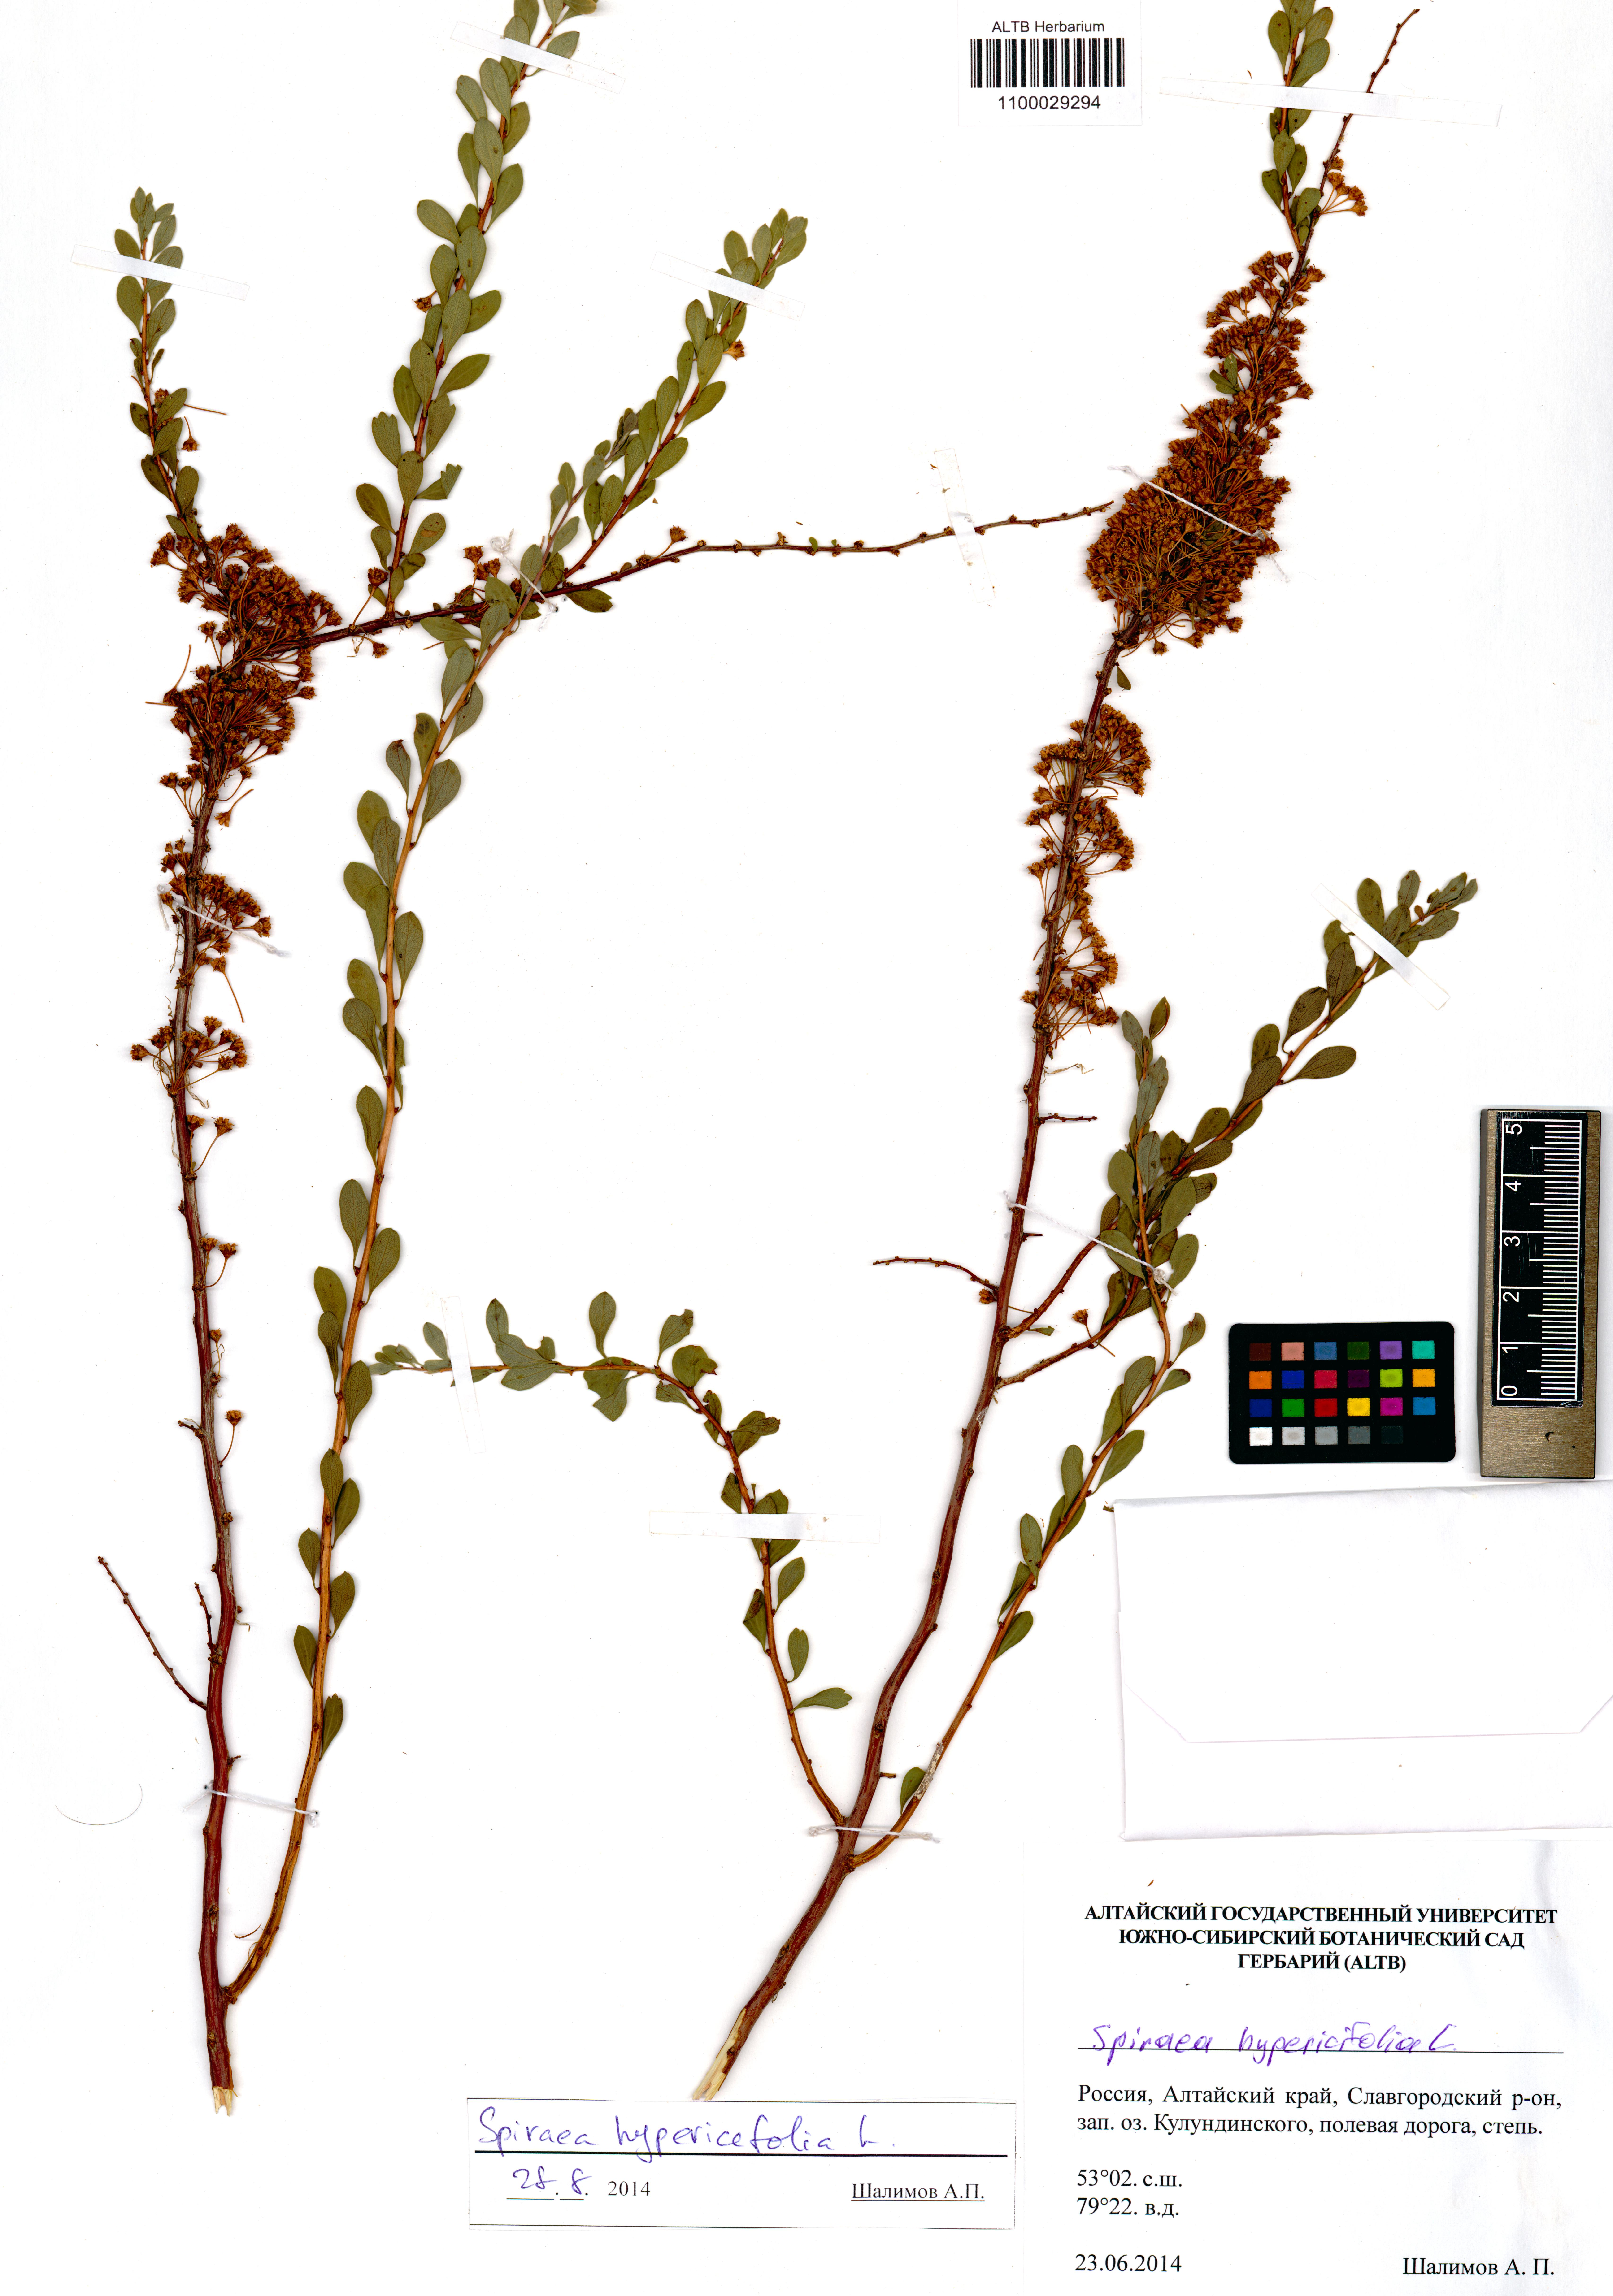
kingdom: Plantae
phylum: Tracheophyta
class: Magnoliopsida
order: Rosales
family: Rosaceae
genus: Spiraea
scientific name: Spiraea hypericifolia
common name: Iberian spirea
